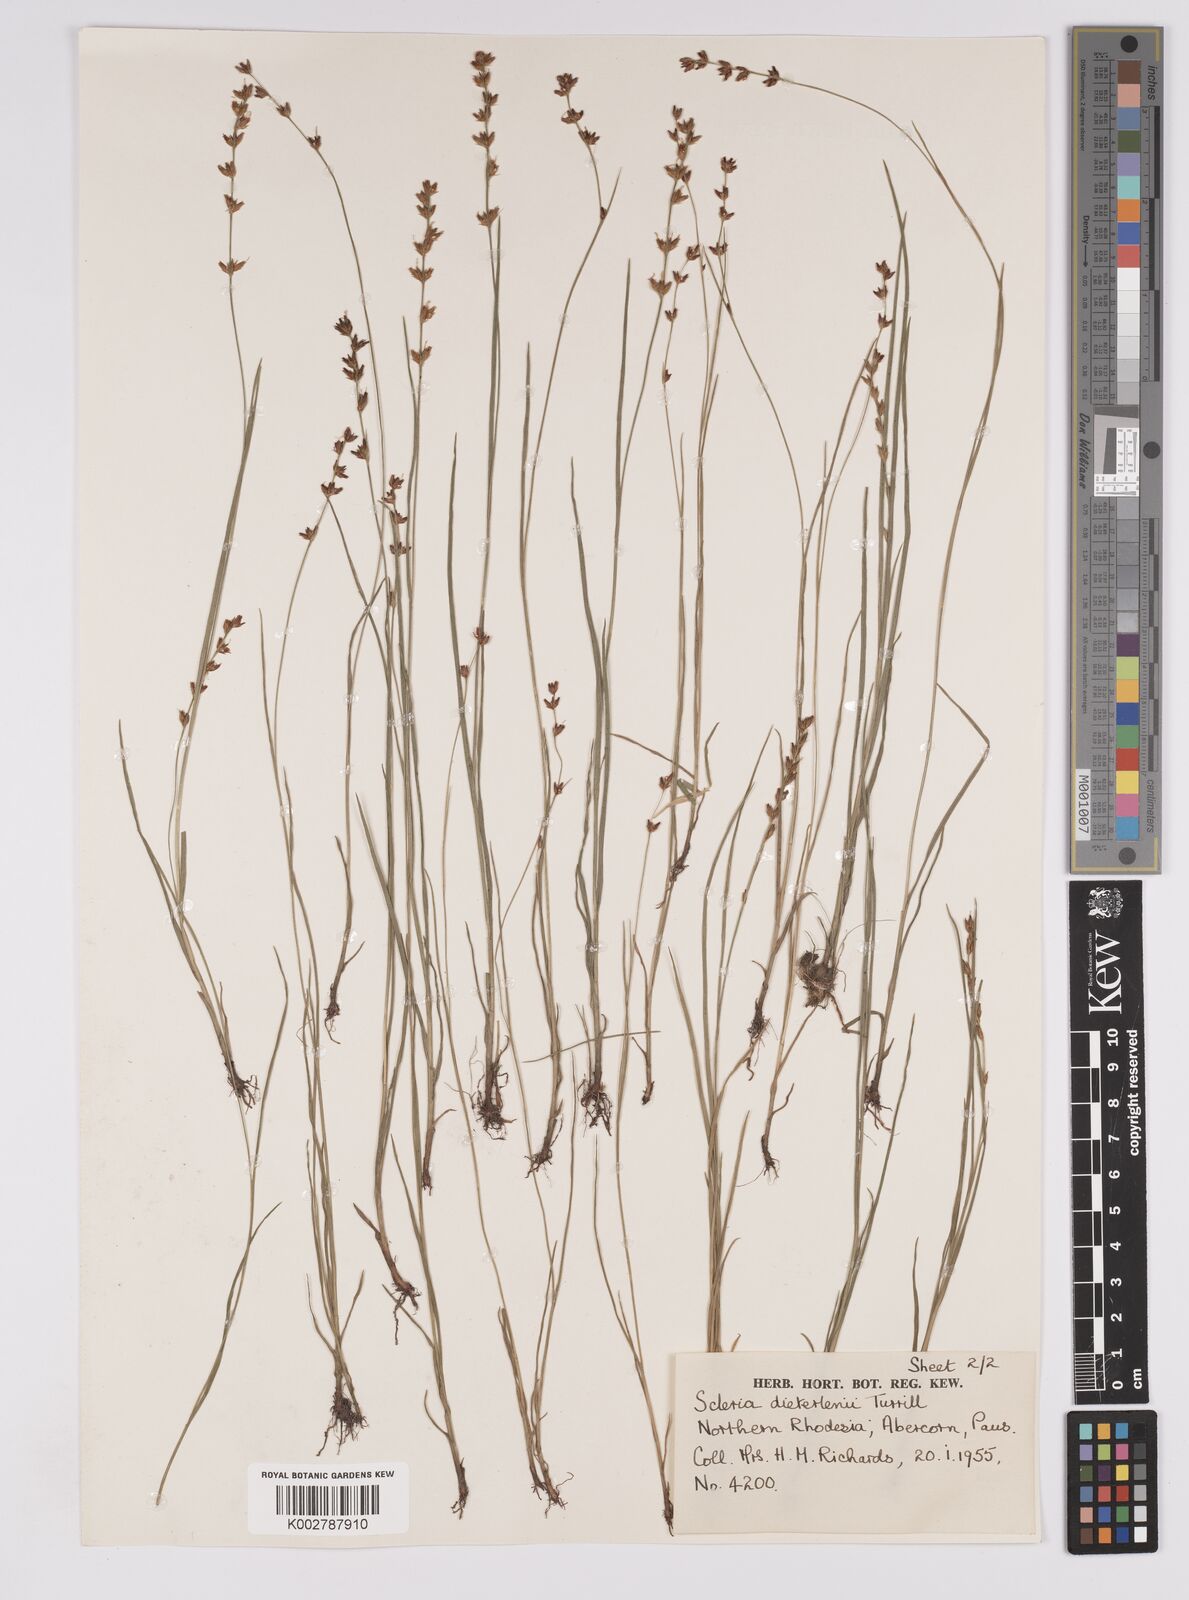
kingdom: Plantae
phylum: Tracheophyta
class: Liliopsida
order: Poales
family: Cyperaceae
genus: Scleria
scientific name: Scleria flexuosa
